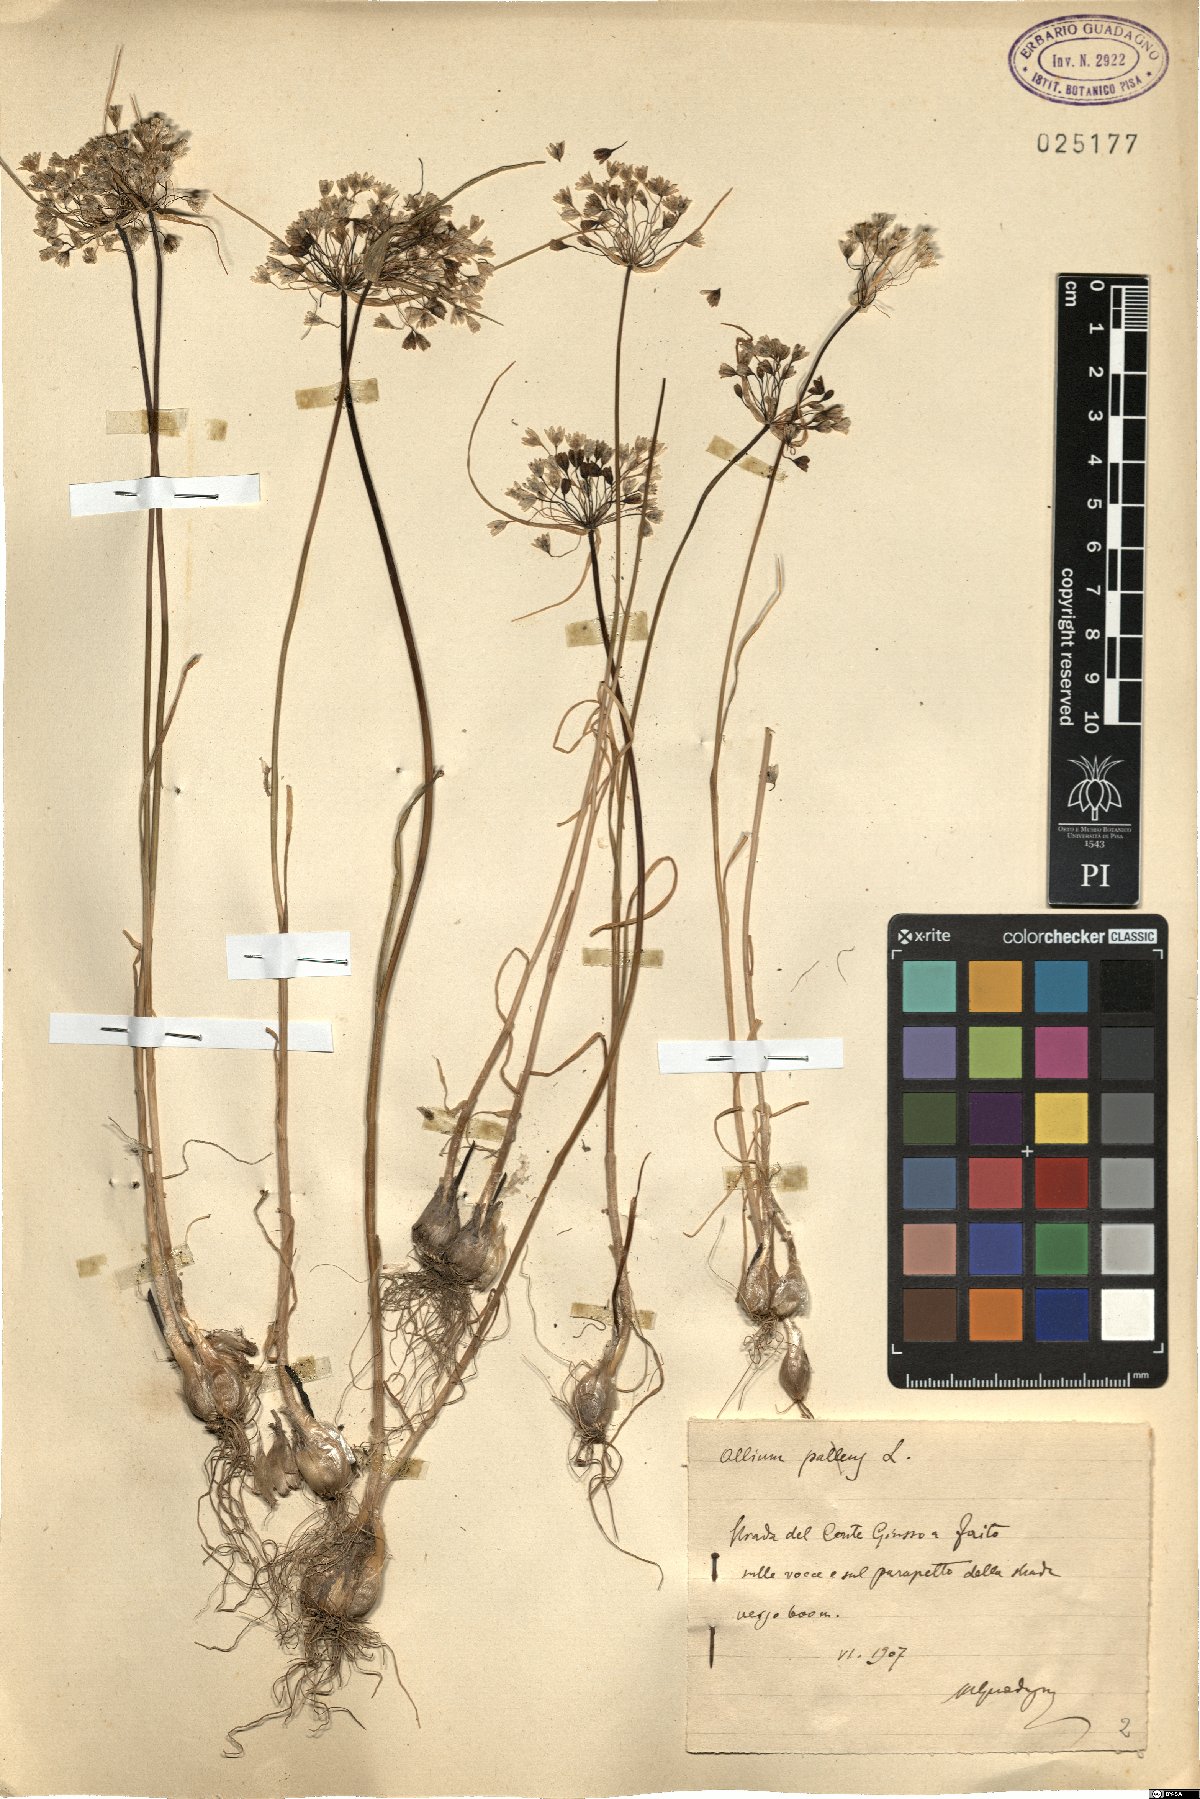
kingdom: Plantae
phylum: Tracheophyta
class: Liliopsida
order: Asparagales
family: Amaryllidaceae
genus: Allium
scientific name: Allium pallens
